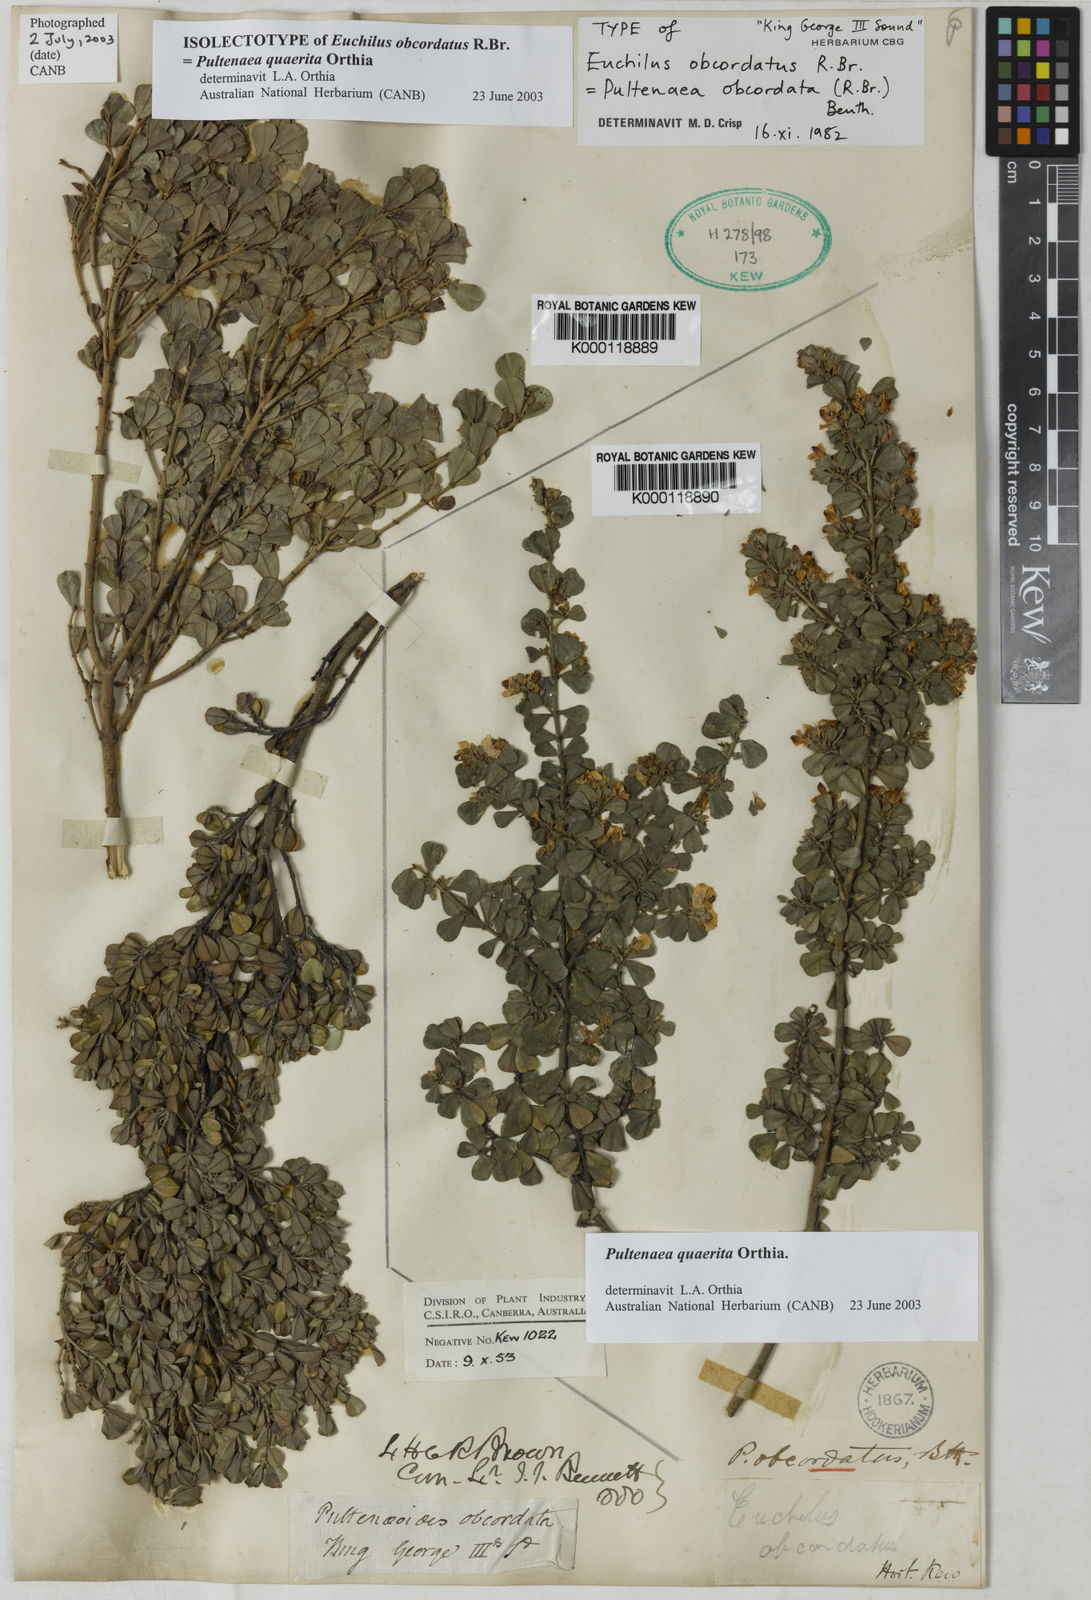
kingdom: Plantae
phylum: Tracheophyta
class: Magnoliopsida
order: Fabales
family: Fabaceae
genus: Pultenaea
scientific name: Pultenaea heterochila
